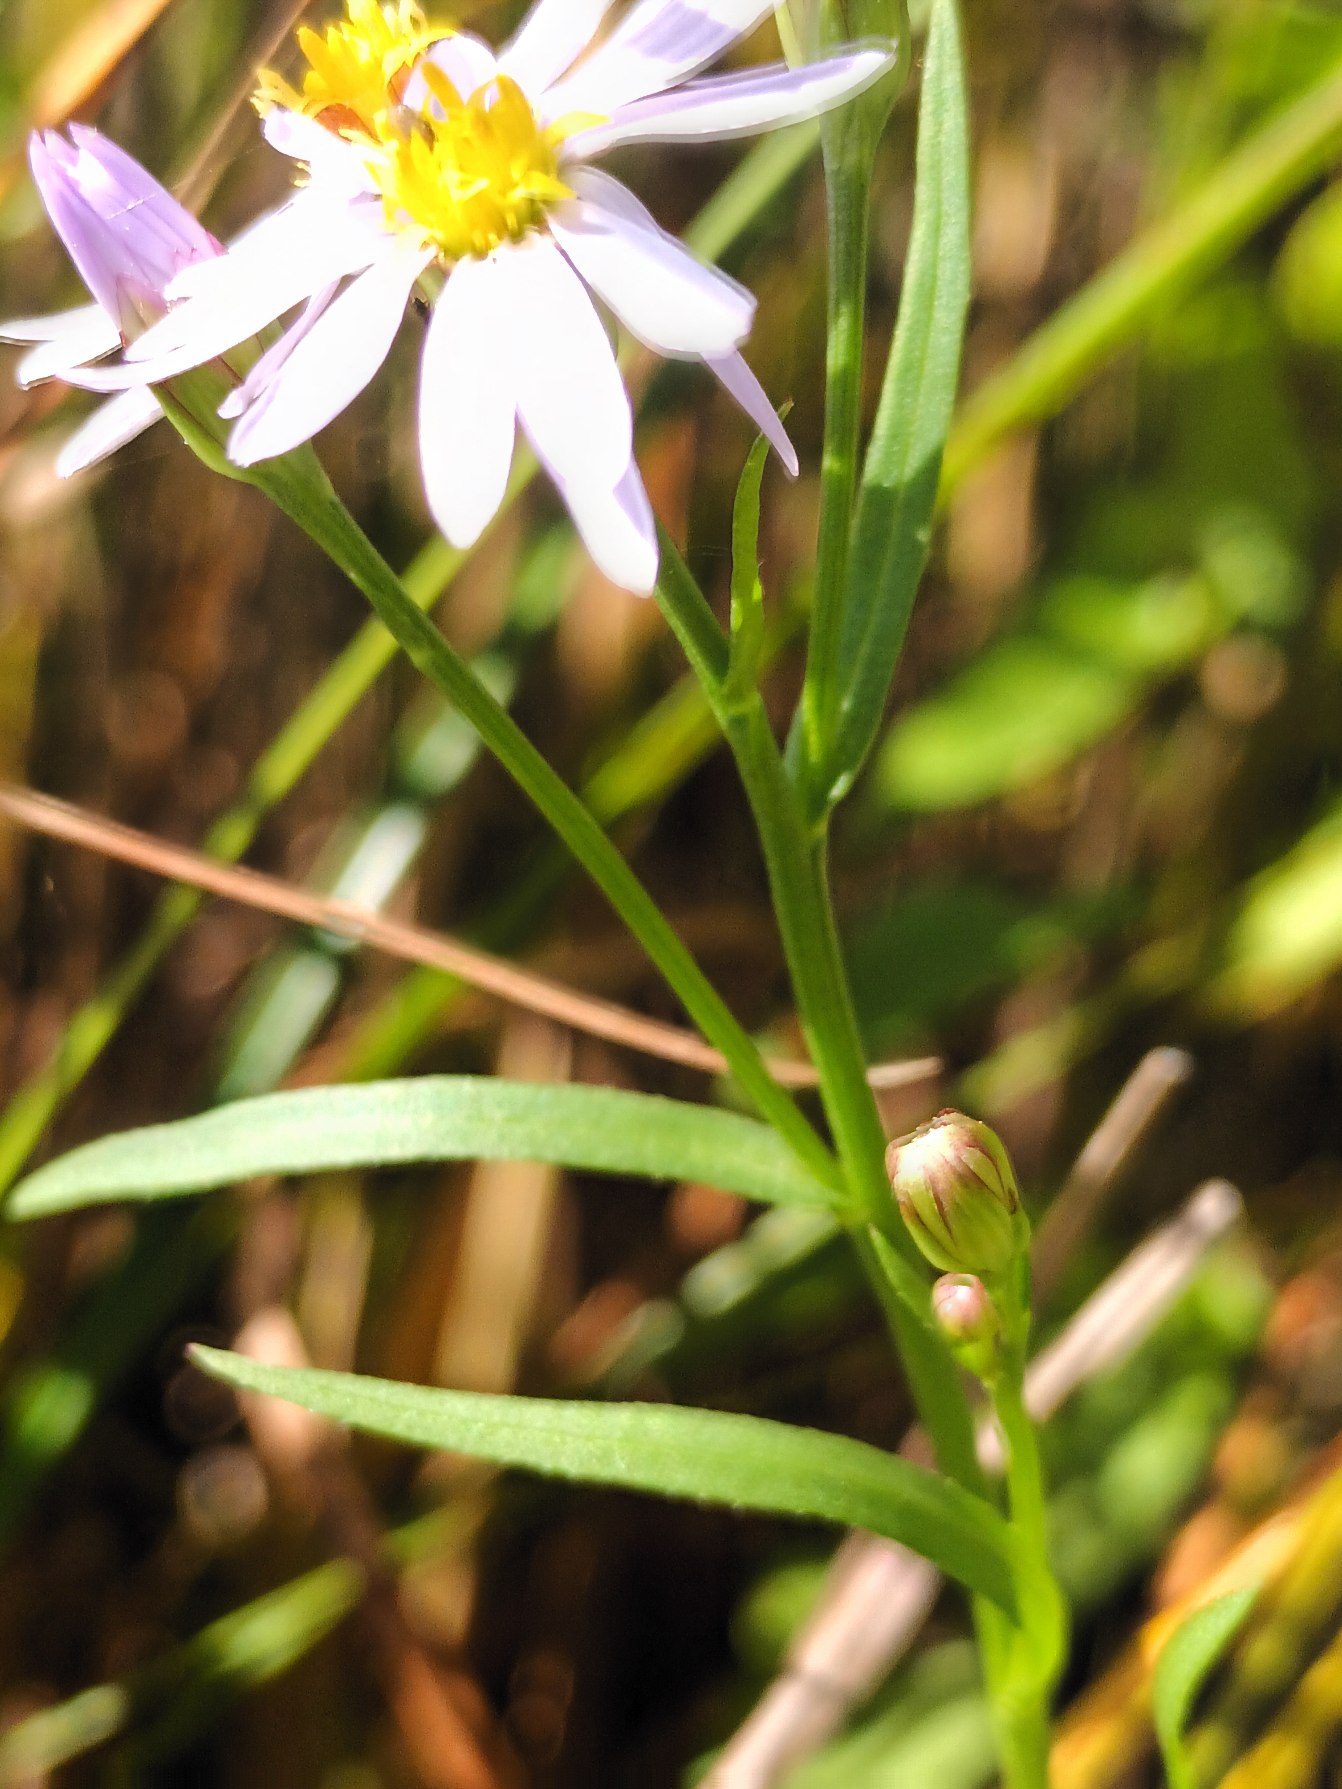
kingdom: Plantae
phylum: Tracheophyta
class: Magnoliopsida
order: Asterales
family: Asteraceae
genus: Tripolium
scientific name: Tripolium pannonicum
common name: Strandasters
